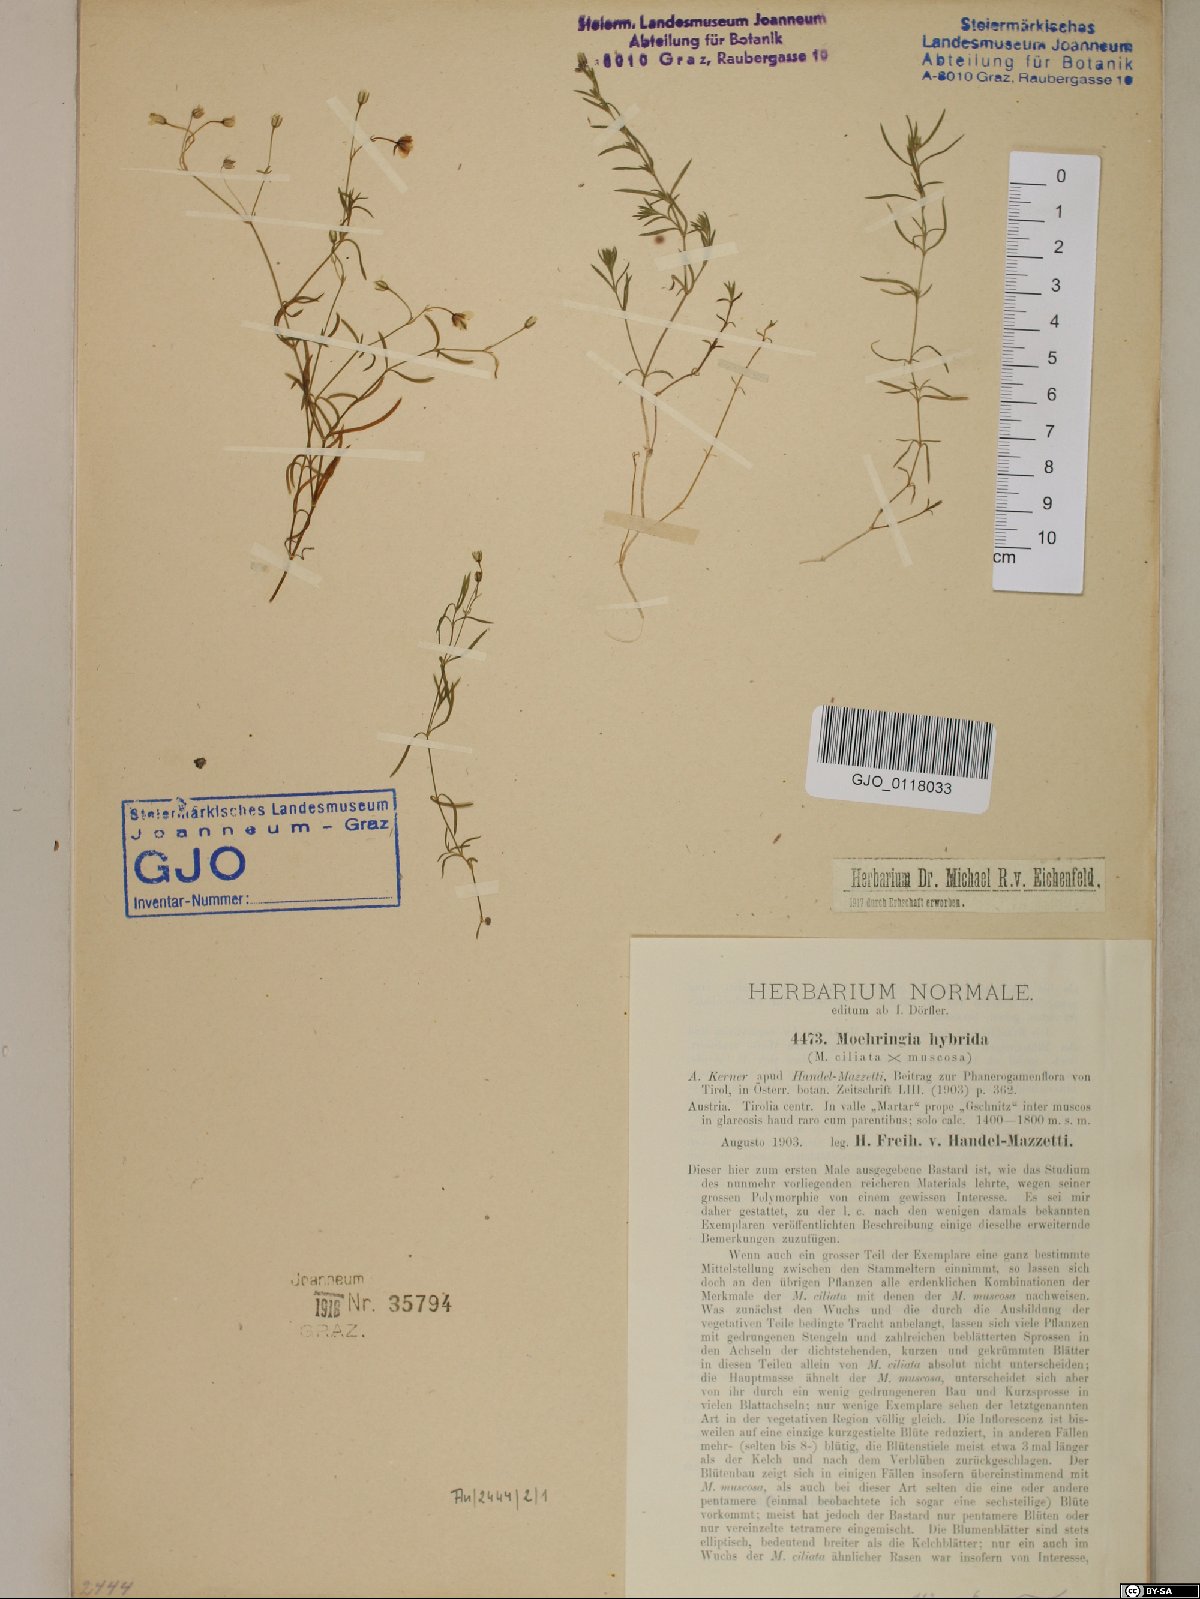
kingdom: Plantae
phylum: Tracheophyta
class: Magnoliopsida
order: Caryophyllales
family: Caryophyllaceae
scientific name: Caryophyllaceae
